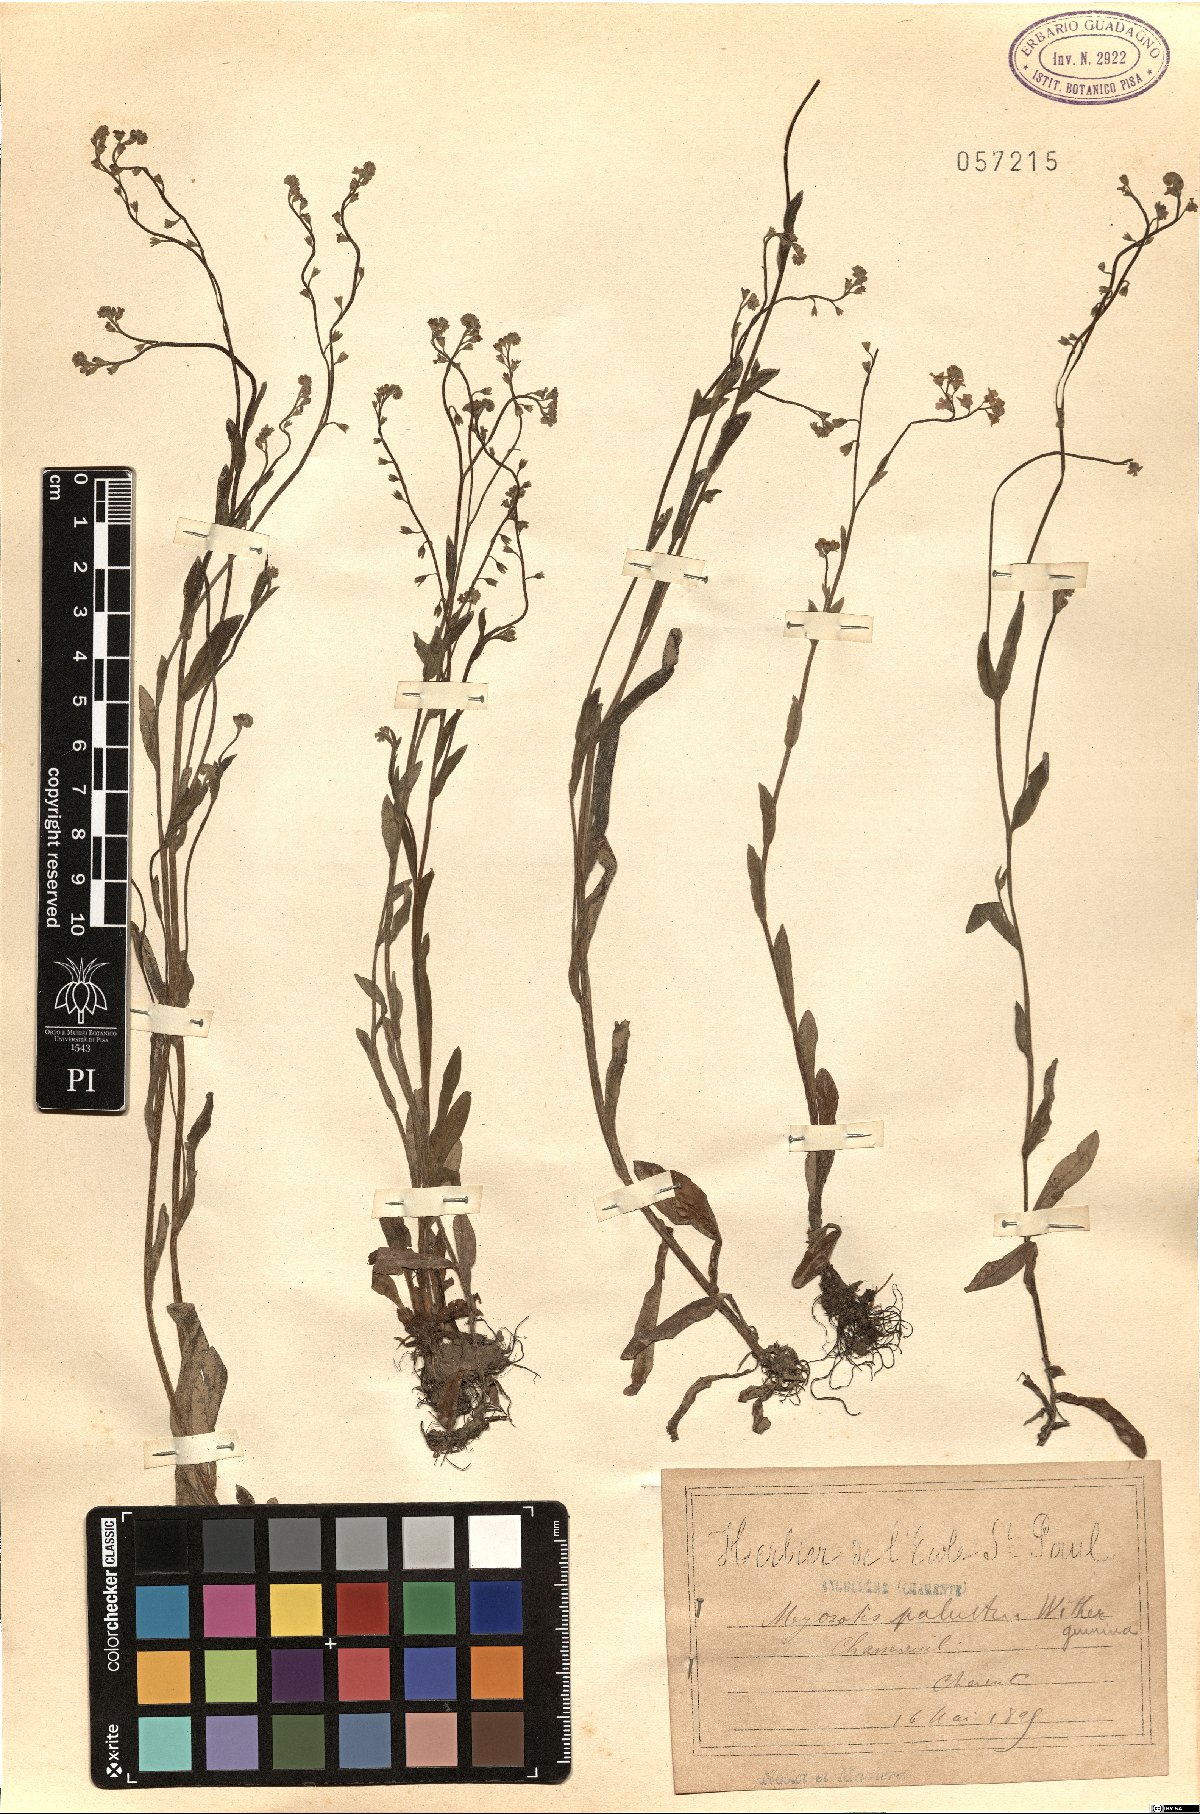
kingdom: Plantae
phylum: Tracheophyta
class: Magnoliopsida
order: Boraginales
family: Boraginaceae
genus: Myosotis
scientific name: Myosotis scorpioides
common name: Water forget-me-not
